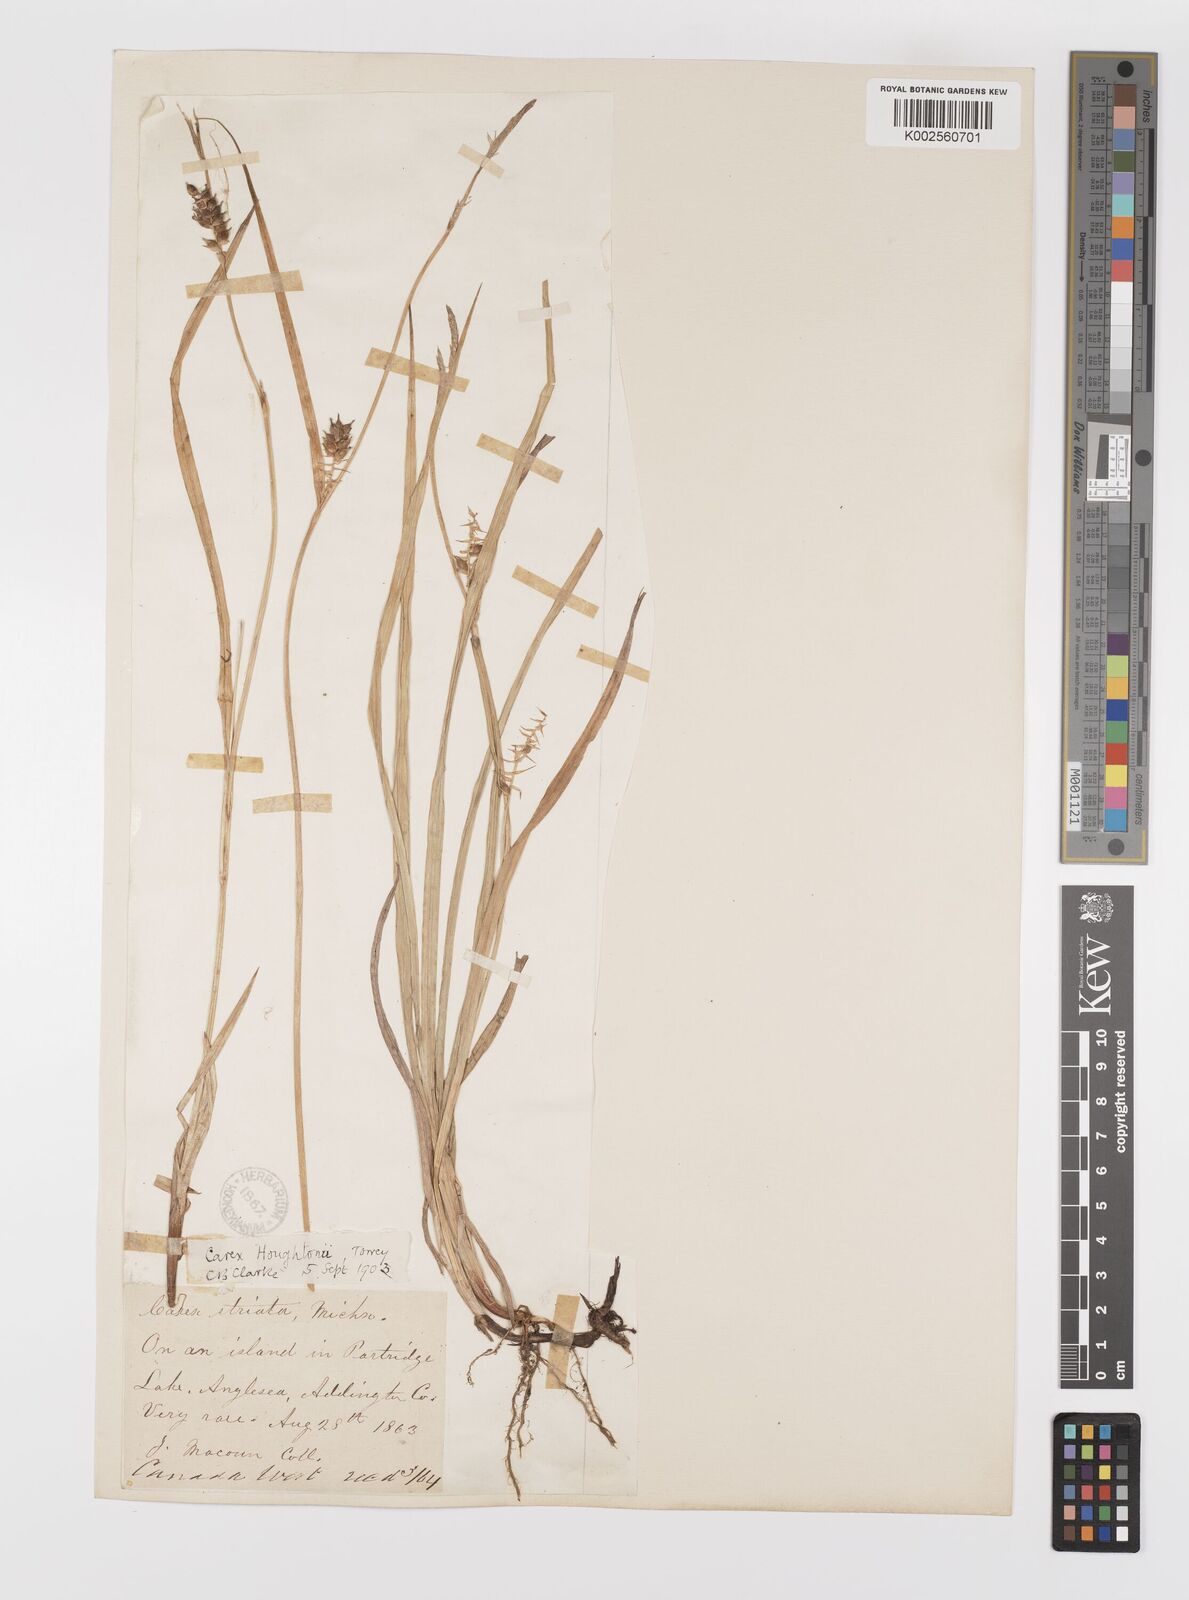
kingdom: Plantae
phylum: Tracheophyta
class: Liliopsida
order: Poales
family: Cyperaceae
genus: Carex
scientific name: Carex houghtoniana
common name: Houghton's sedge
